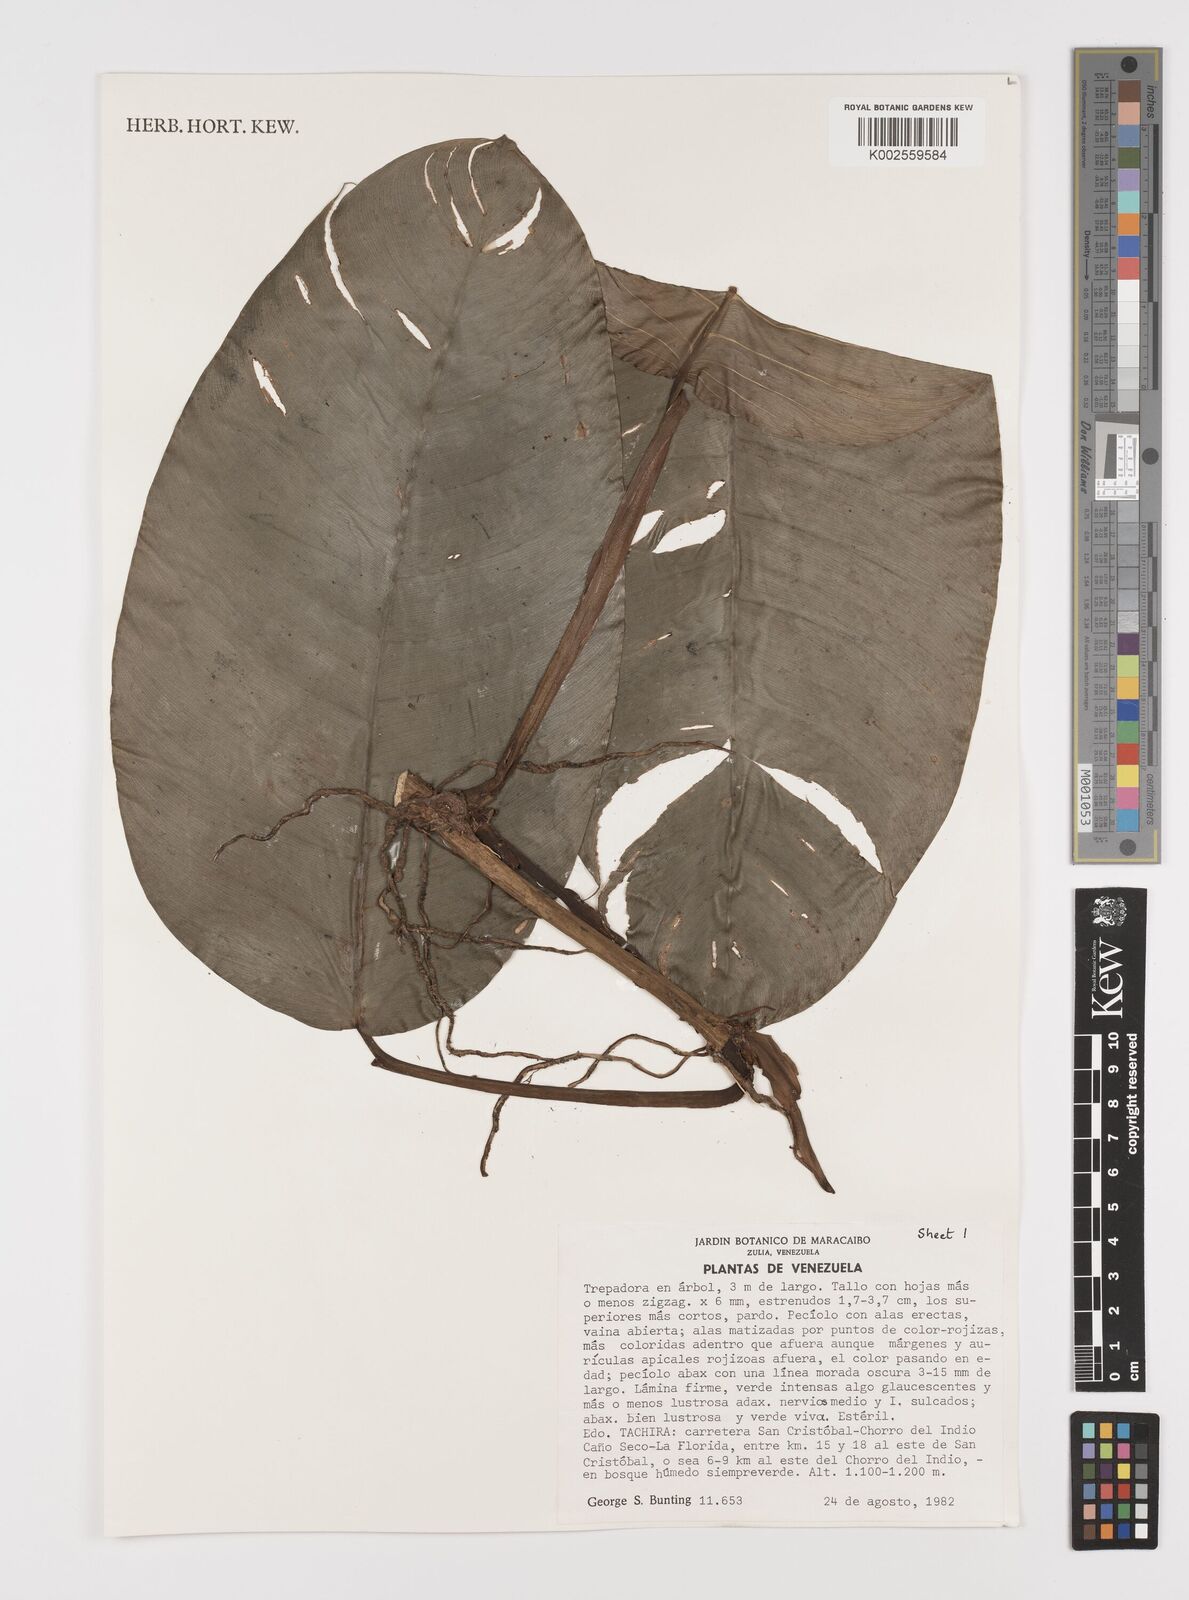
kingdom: Plantae
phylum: Tracheophyta
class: Liliopsida
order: Alismatales
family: Araceae
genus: Philodendron
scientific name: Philodendron inaequilaterum
